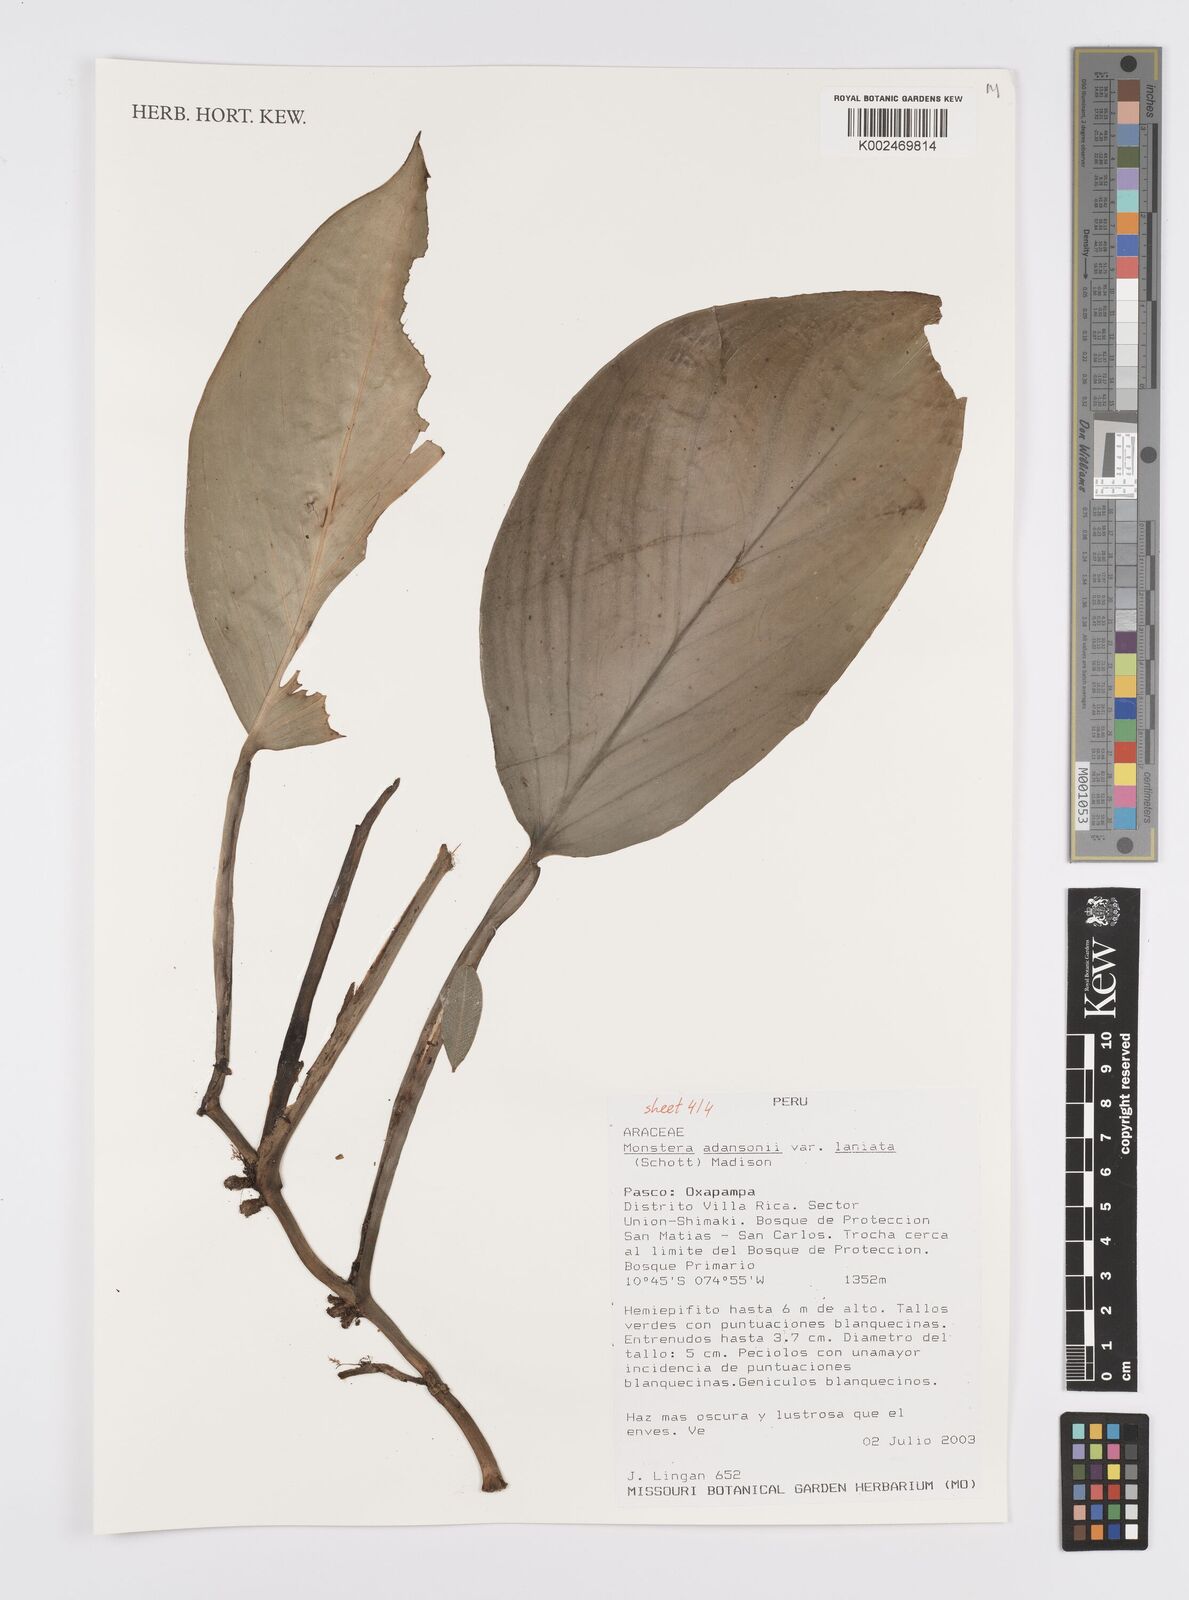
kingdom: Plantae
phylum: Tracheophyta
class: Liliopsida
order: Alismatales
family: Araceae
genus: Monstera
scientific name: Monstera adansonii
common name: Tarovine
